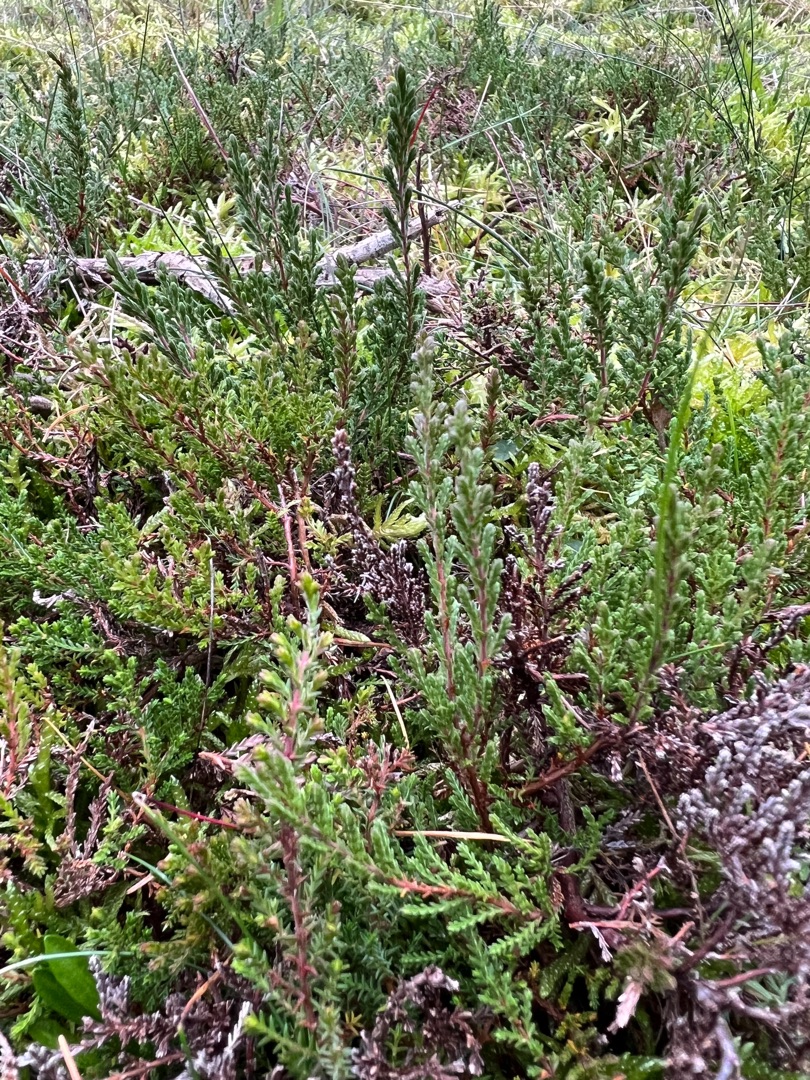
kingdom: Plantae
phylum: Tracheophyta
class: Magnoliopsida
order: Ericales
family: Ericaceae
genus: Calluna
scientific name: Calluna vulgaris
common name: Hedelyng
